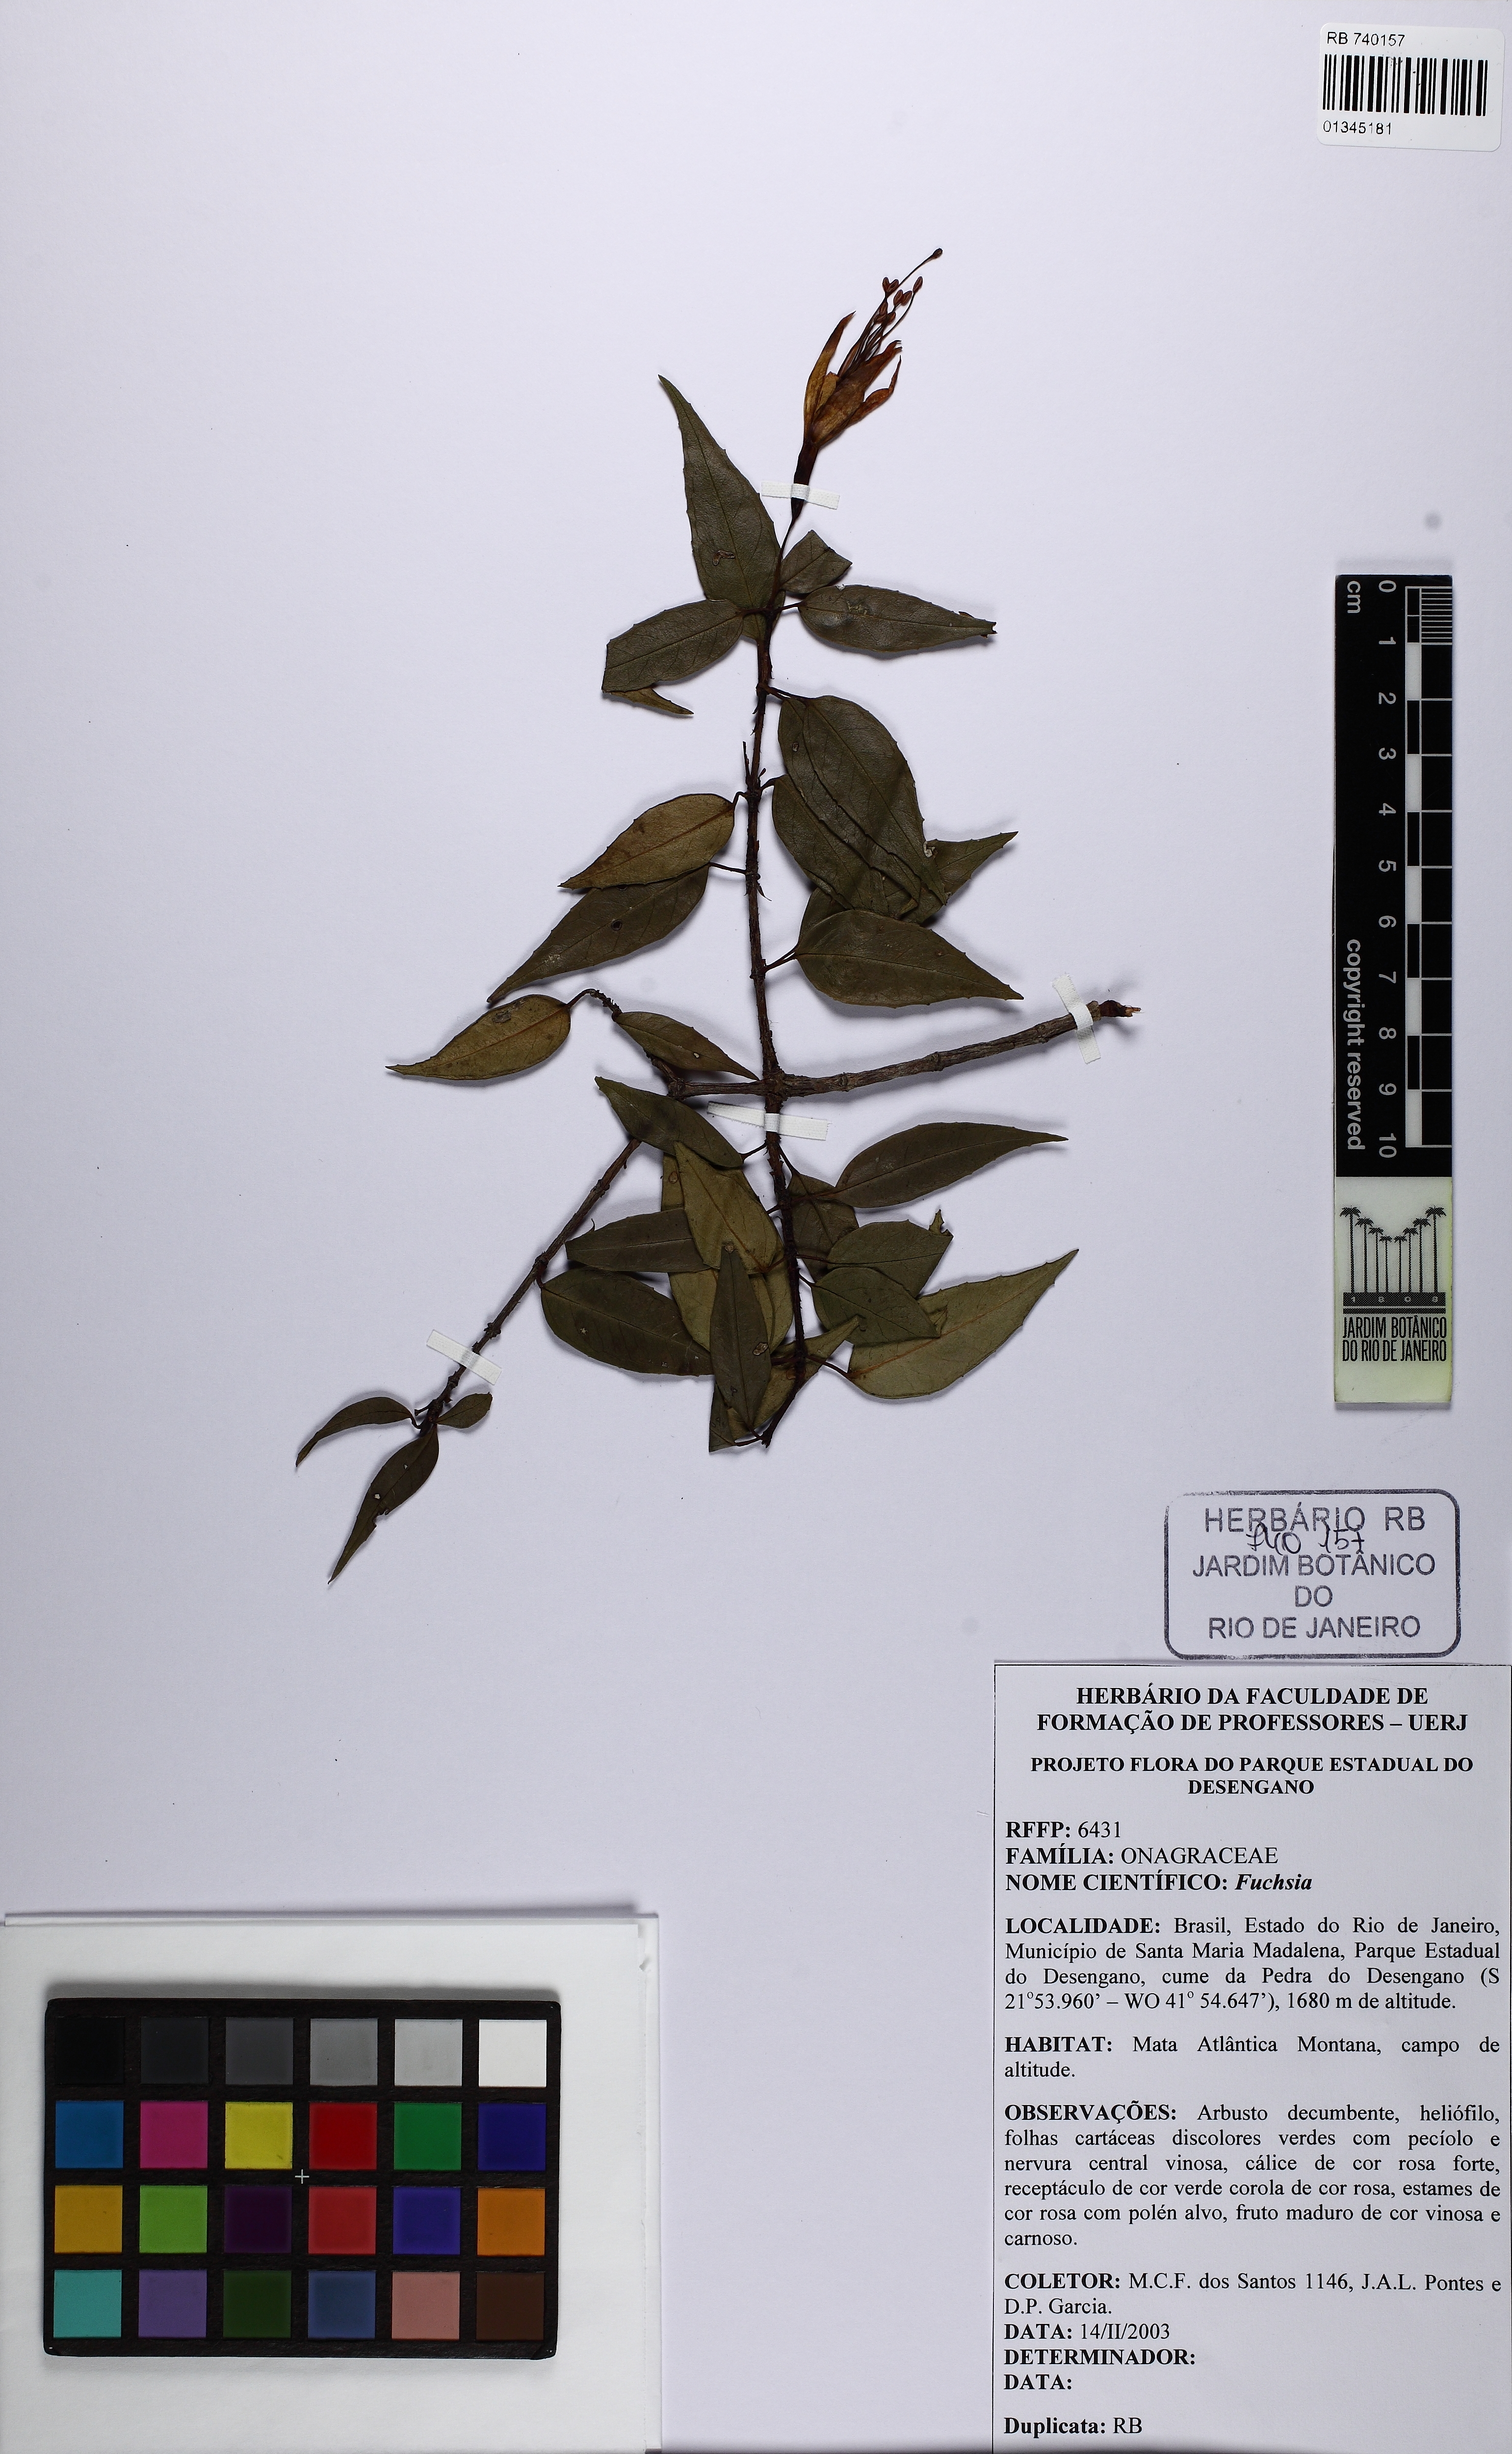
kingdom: Plantae
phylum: Tracheophyta
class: Magnoliopsida
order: Myrtales
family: Onagraceae
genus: Fuchsia
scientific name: Fuchsia
